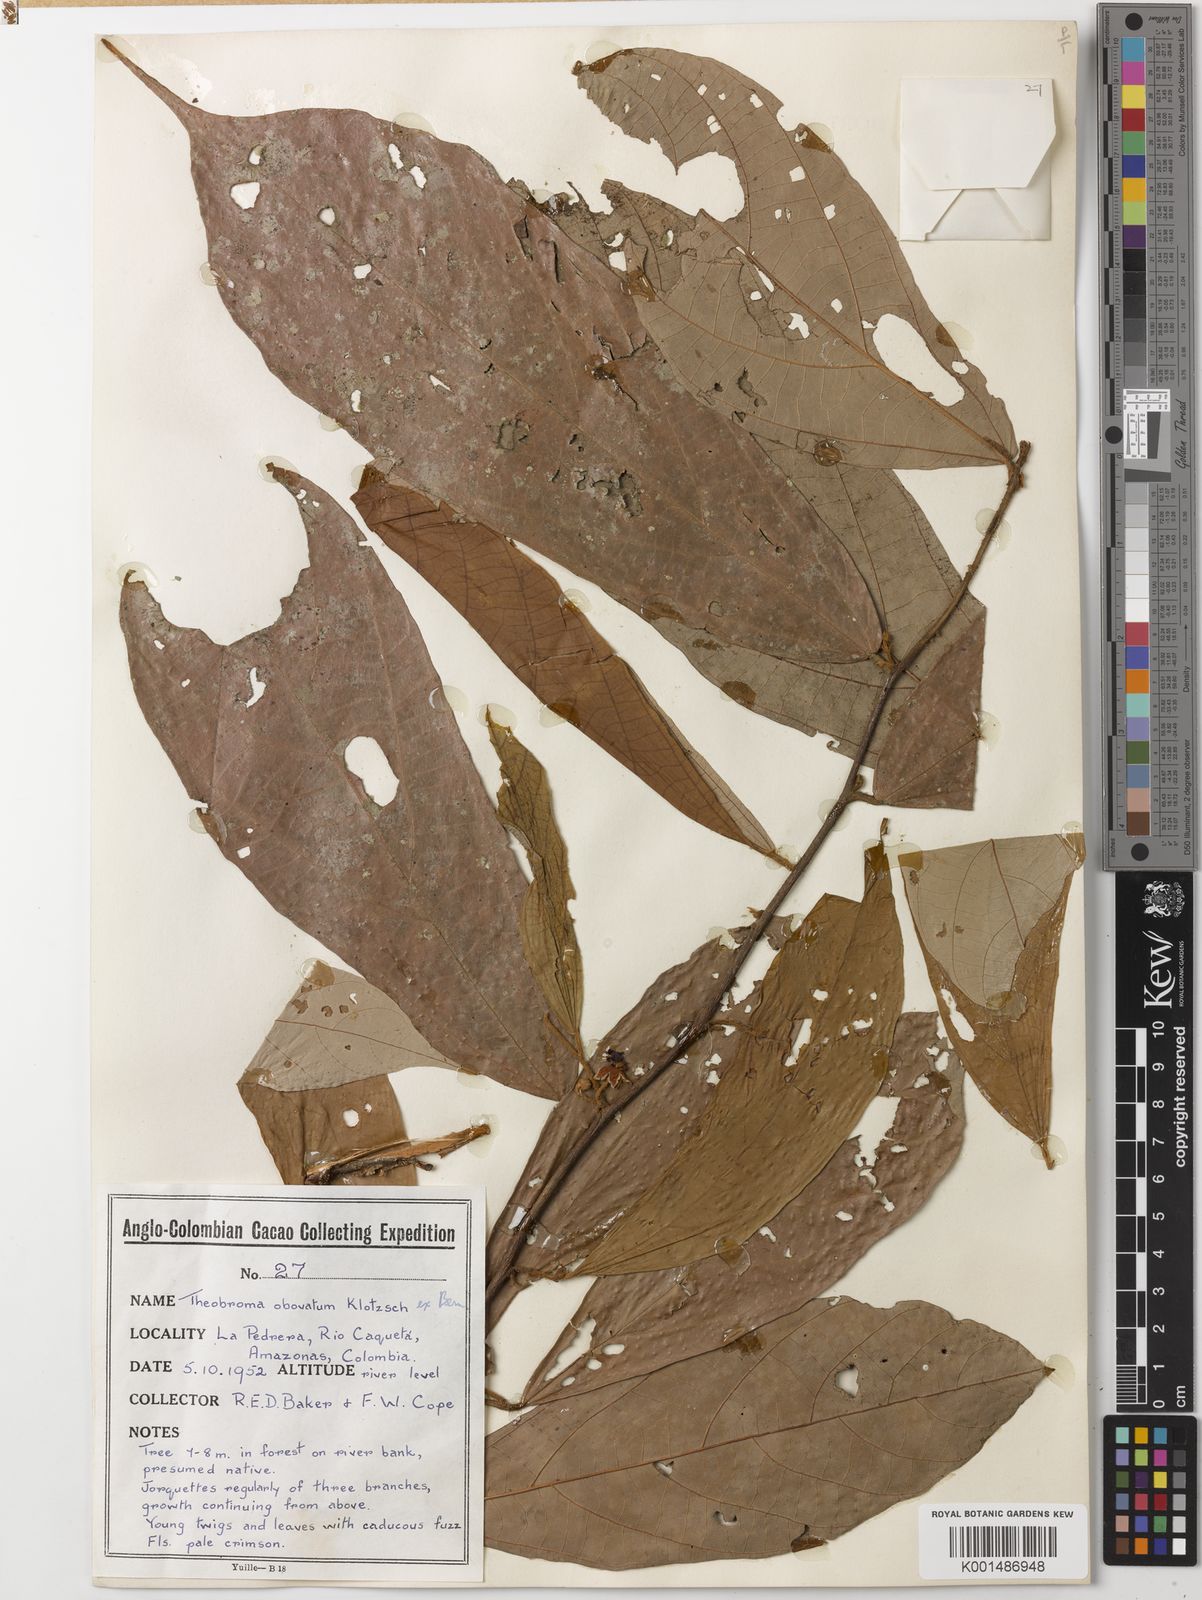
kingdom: Plantae
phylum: Tracheophyta
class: Magnoliopsida
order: Malvales
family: Malvaceae
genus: Theobroma
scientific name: Theobroma obovatum
